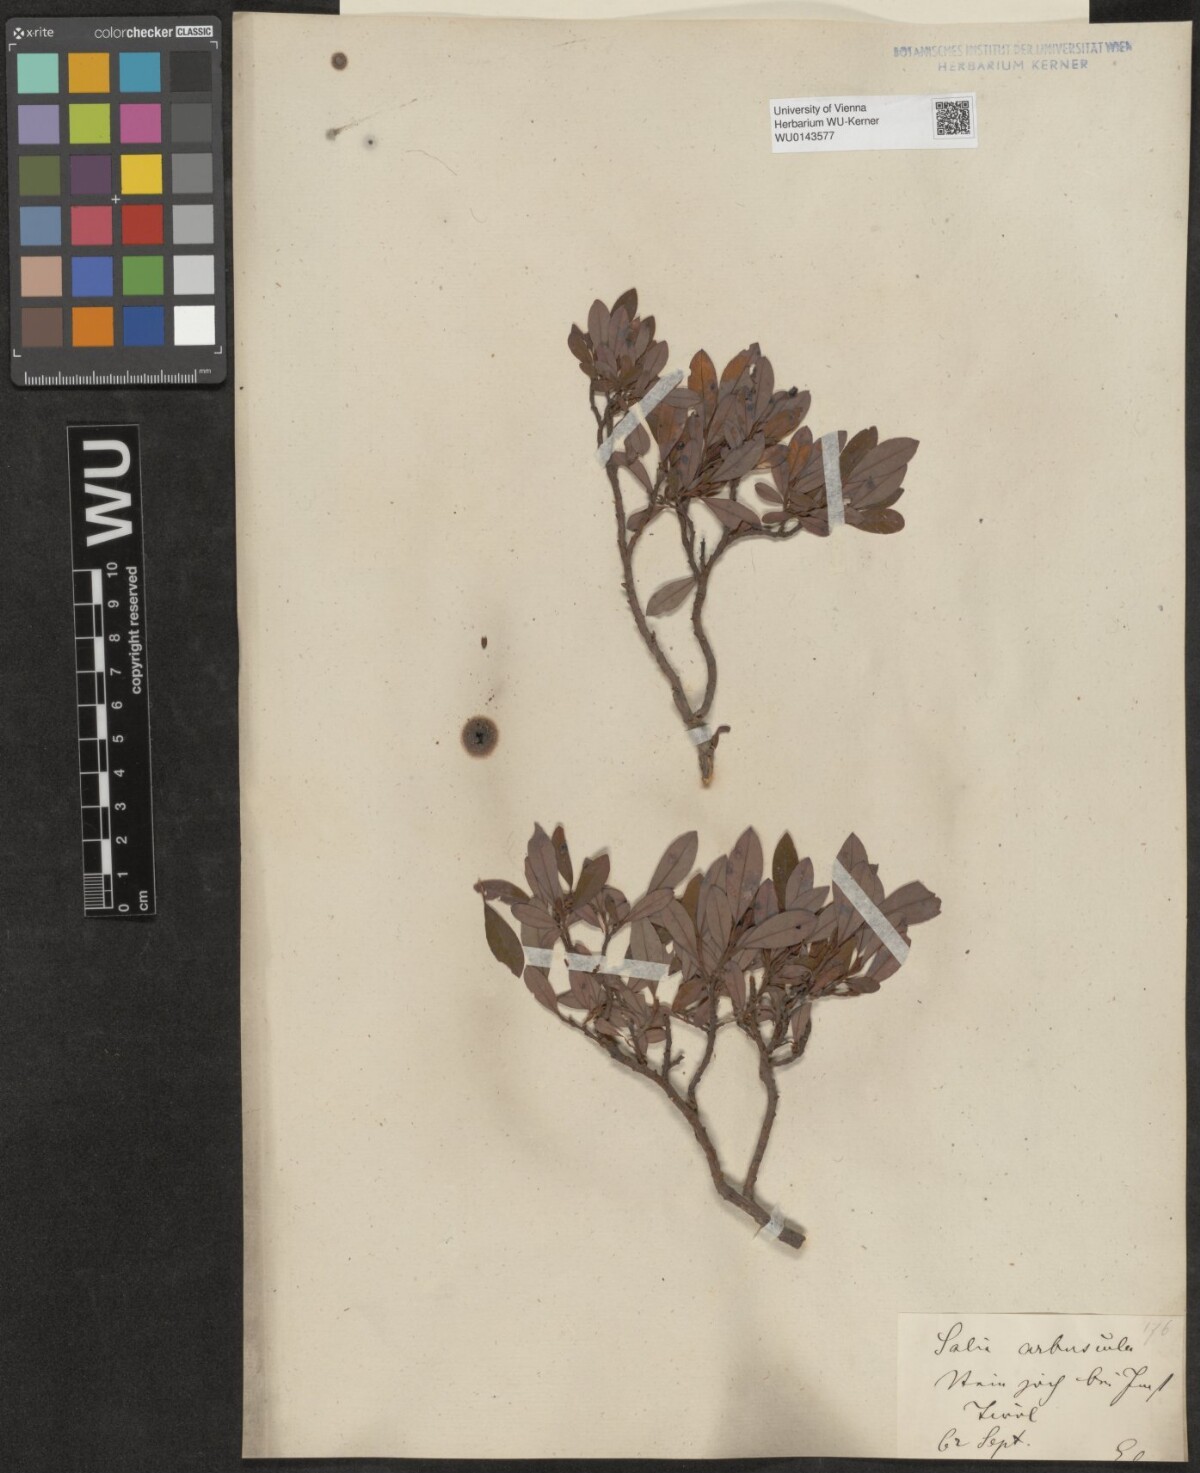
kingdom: Plantae
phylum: Tracheophyta
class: Magnoliopsida
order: Malpighiales
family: Salicaceae
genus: Salix
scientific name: Salix waldsteiniana
